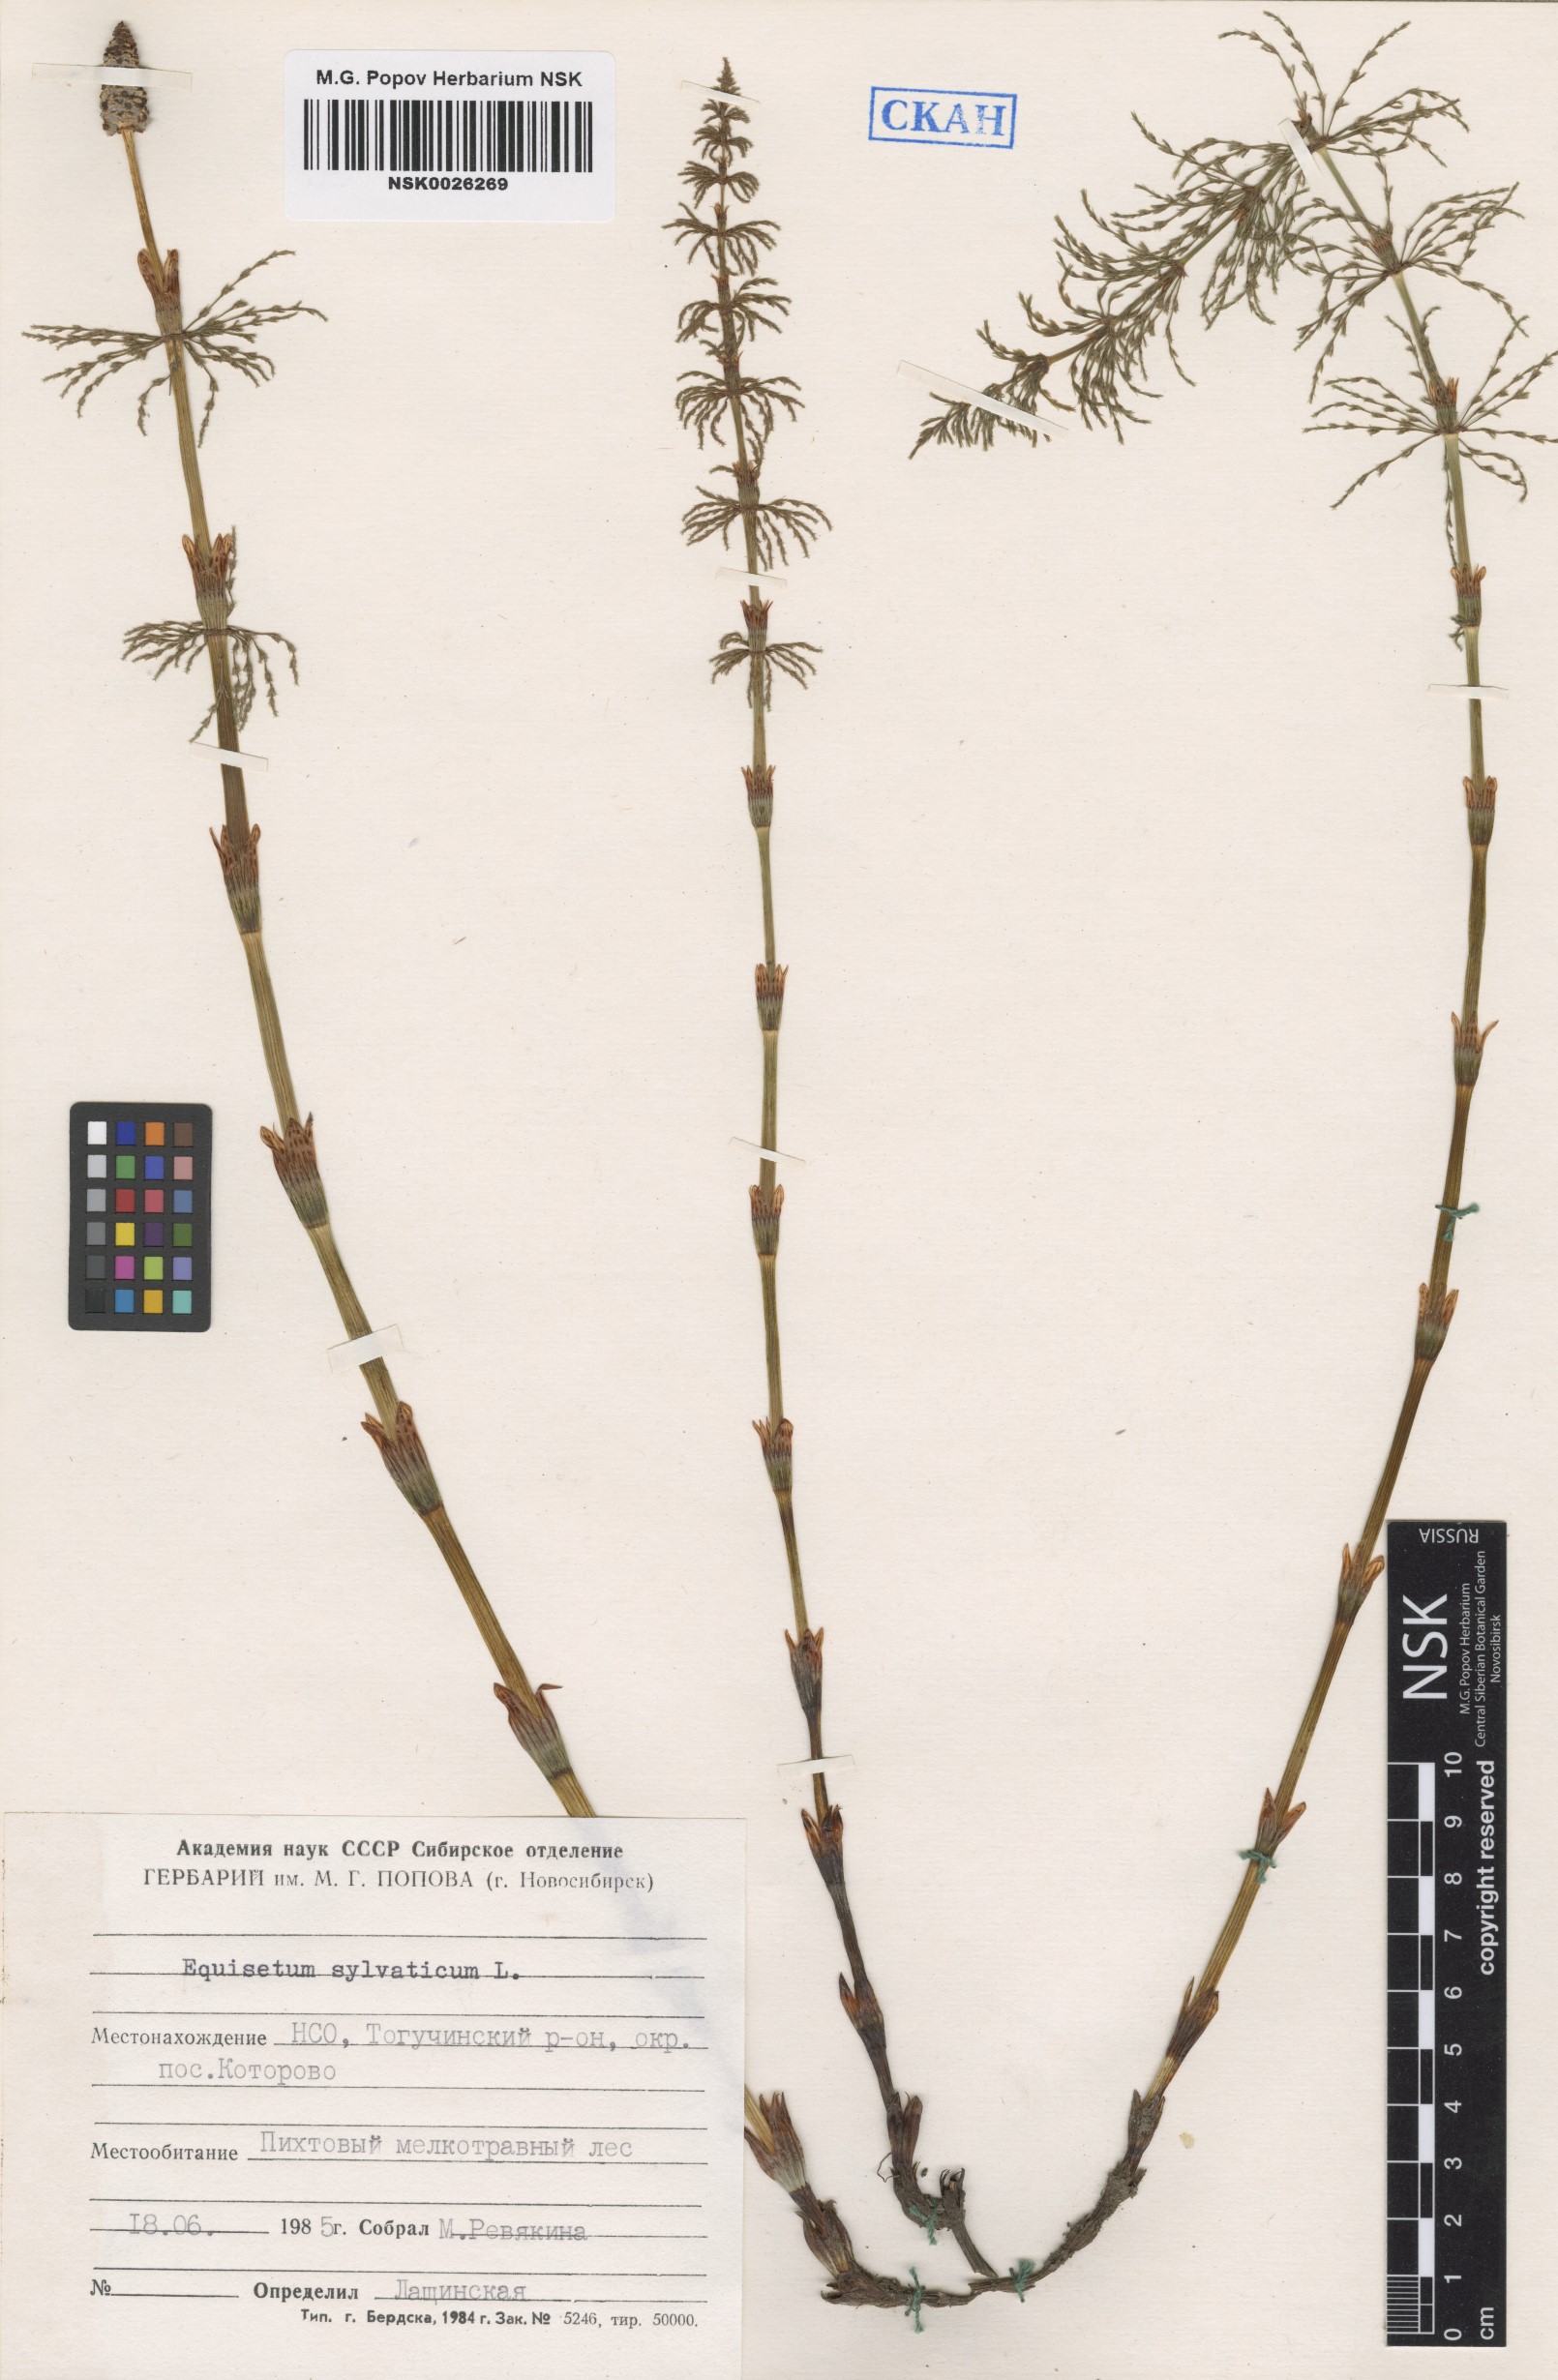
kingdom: Plantae
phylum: Tracheophyta
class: Polypodiopsida
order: Equisetales
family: Equisetaceae
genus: Equisetum
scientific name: Equisetum sylvaticum
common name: Wood horsetail
